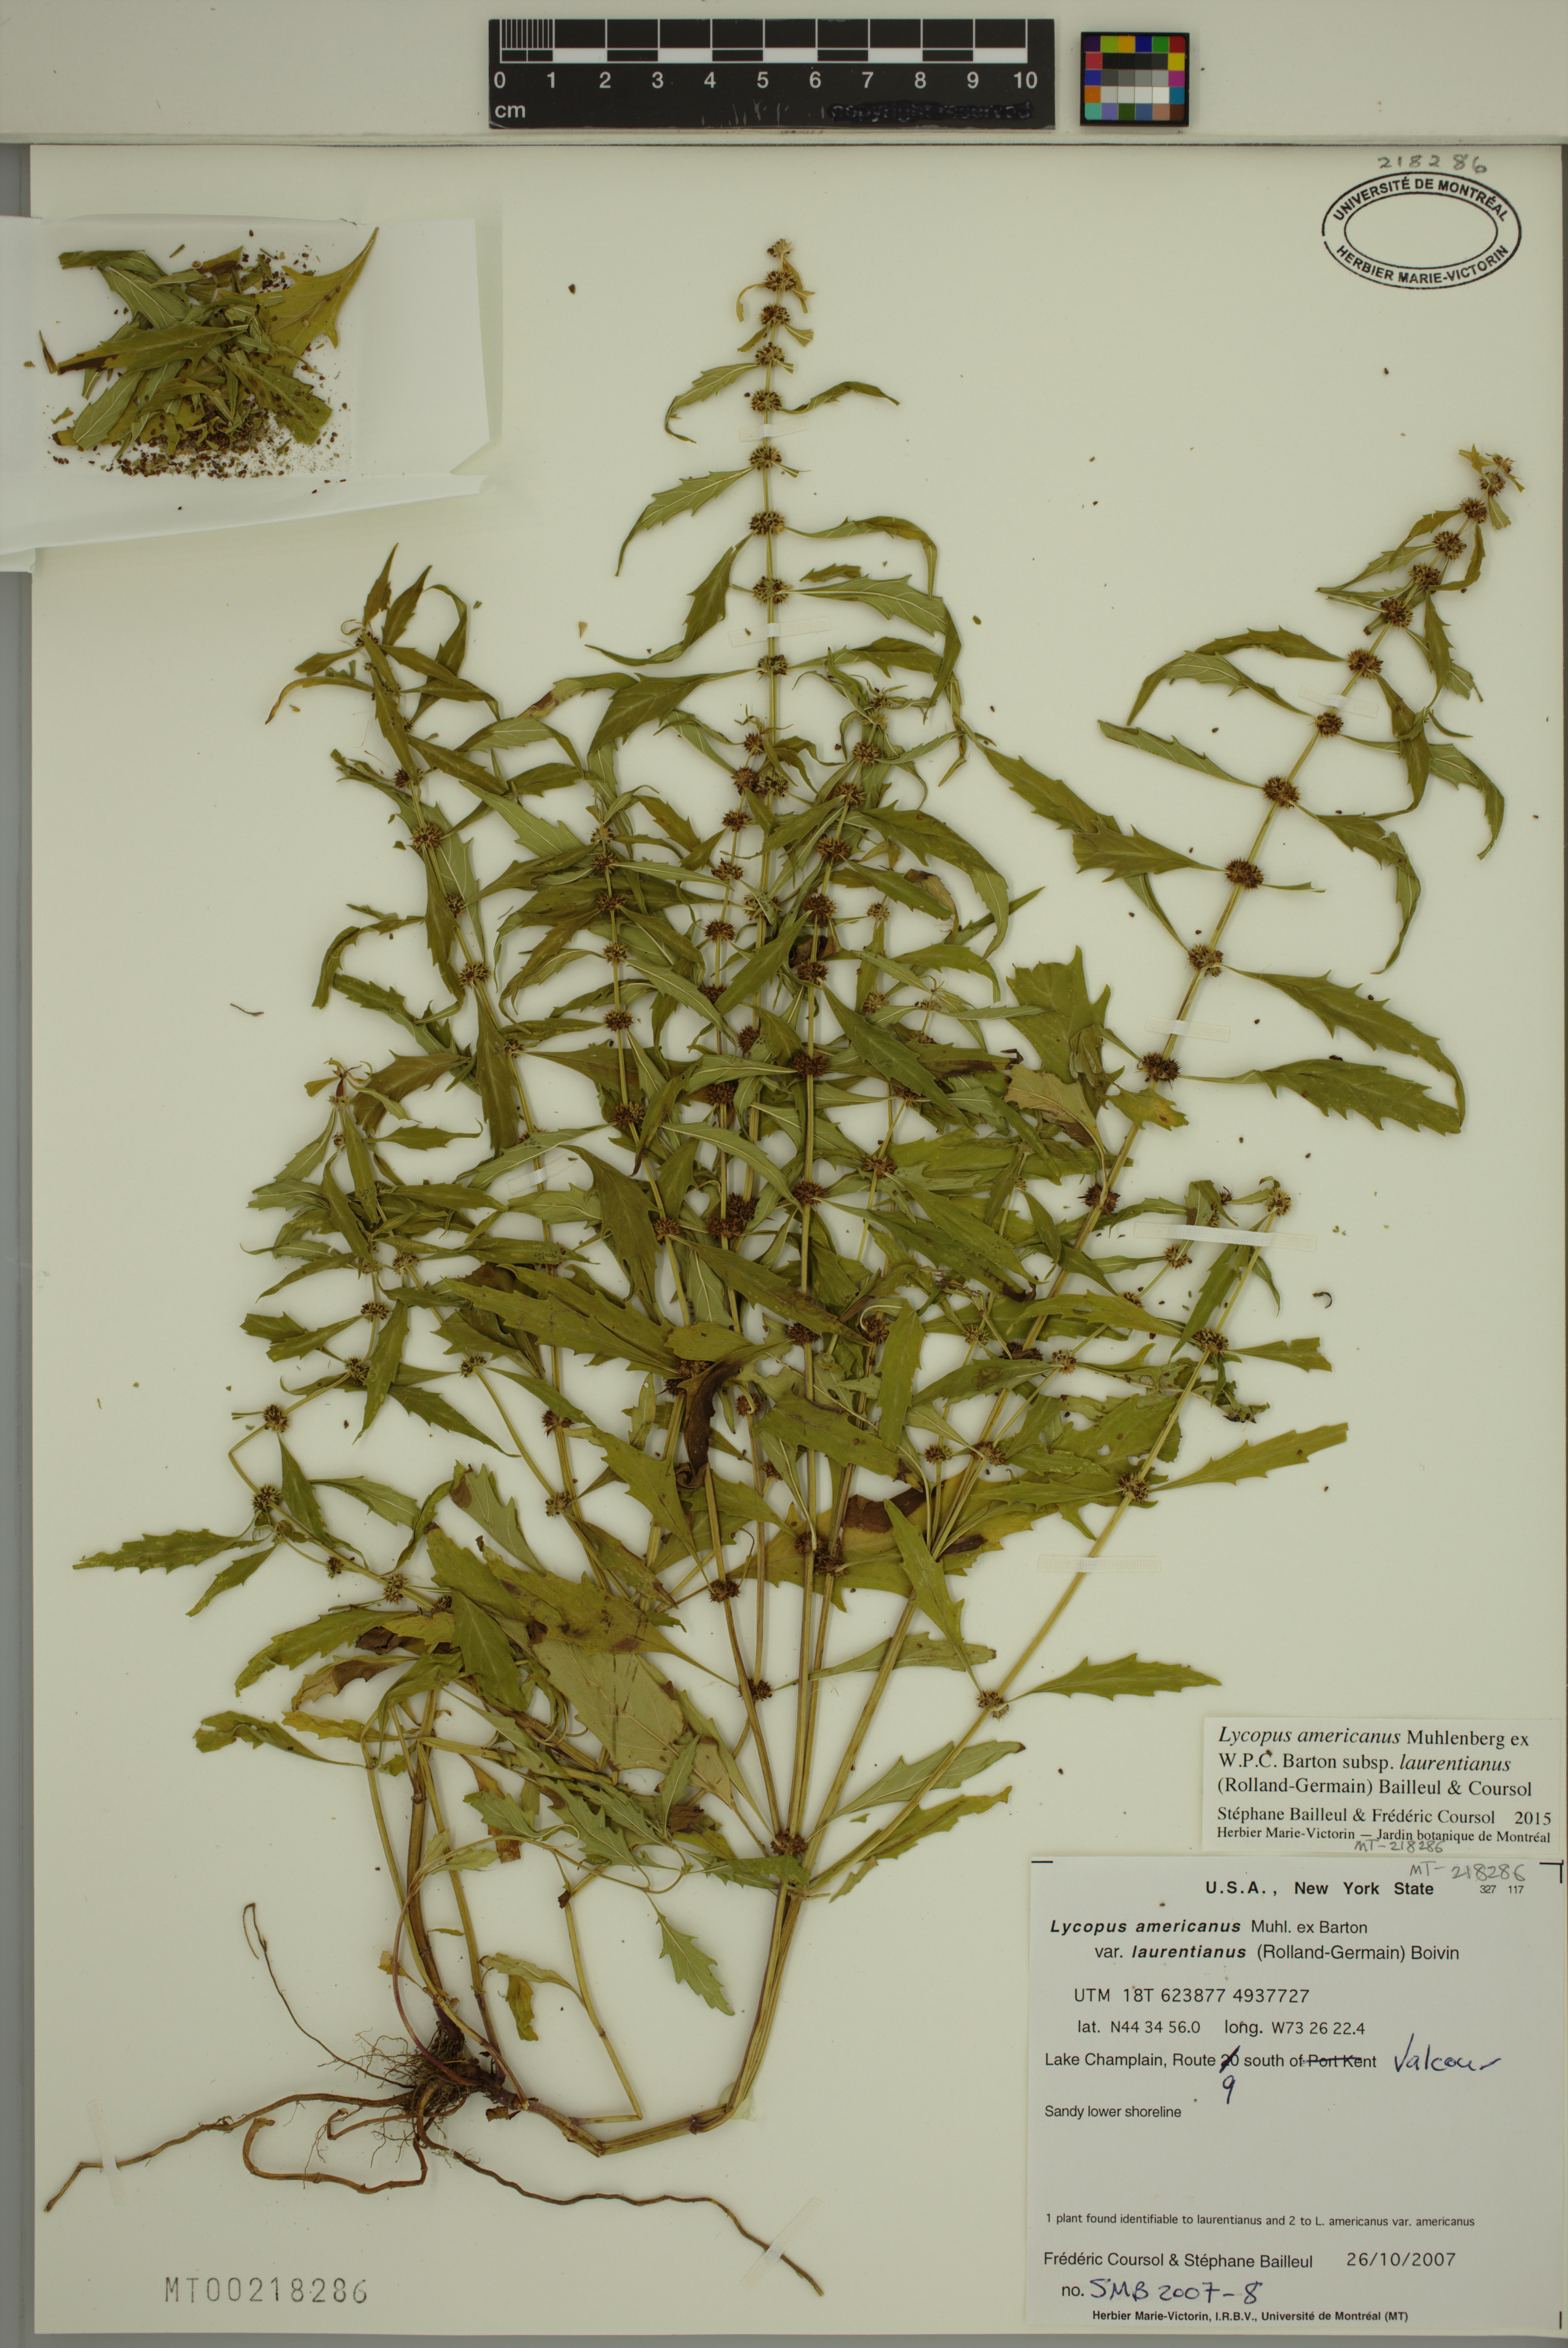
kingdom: Plantae
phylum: Tracheophyta
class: Magnoliopsida
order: Lamiales
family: Lamiaceae
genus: Lycopus
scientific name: Lycopus americanus
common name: American bugleweed
